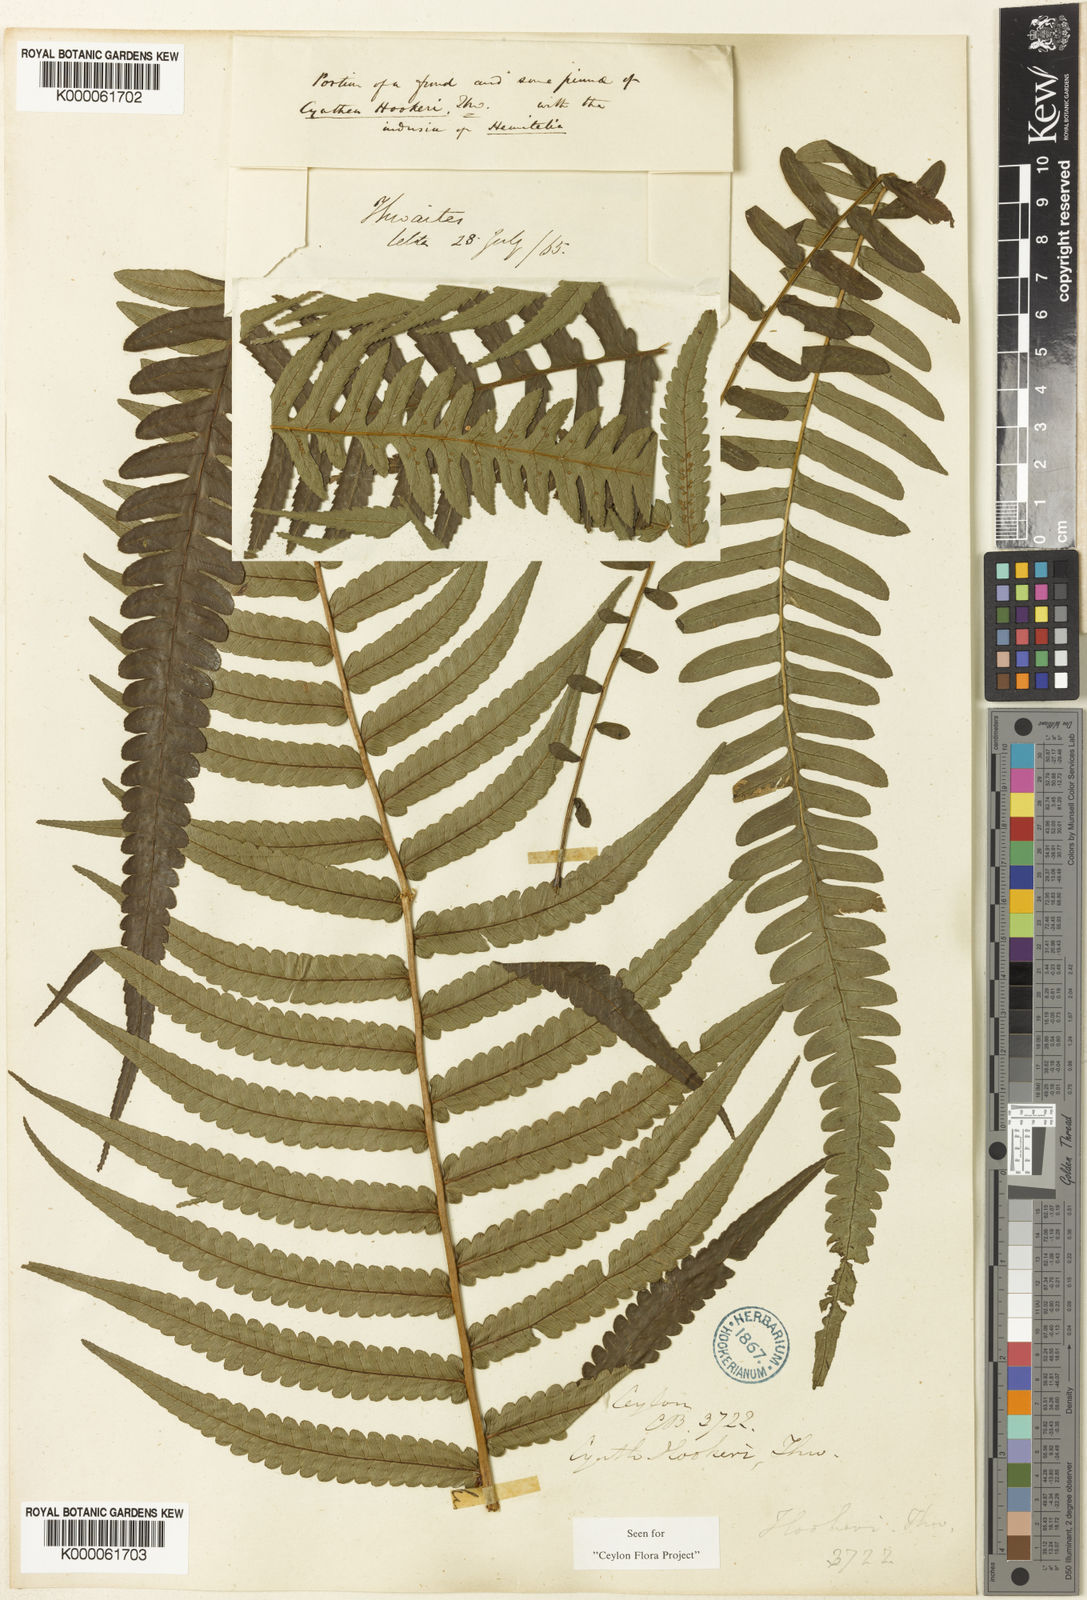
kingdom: Plantae
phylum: Tracheophyta
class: Polypodiopsida
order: Cyatheales
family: Cyatheaceae
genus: Alsophila
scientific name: Alsophila hookeri
